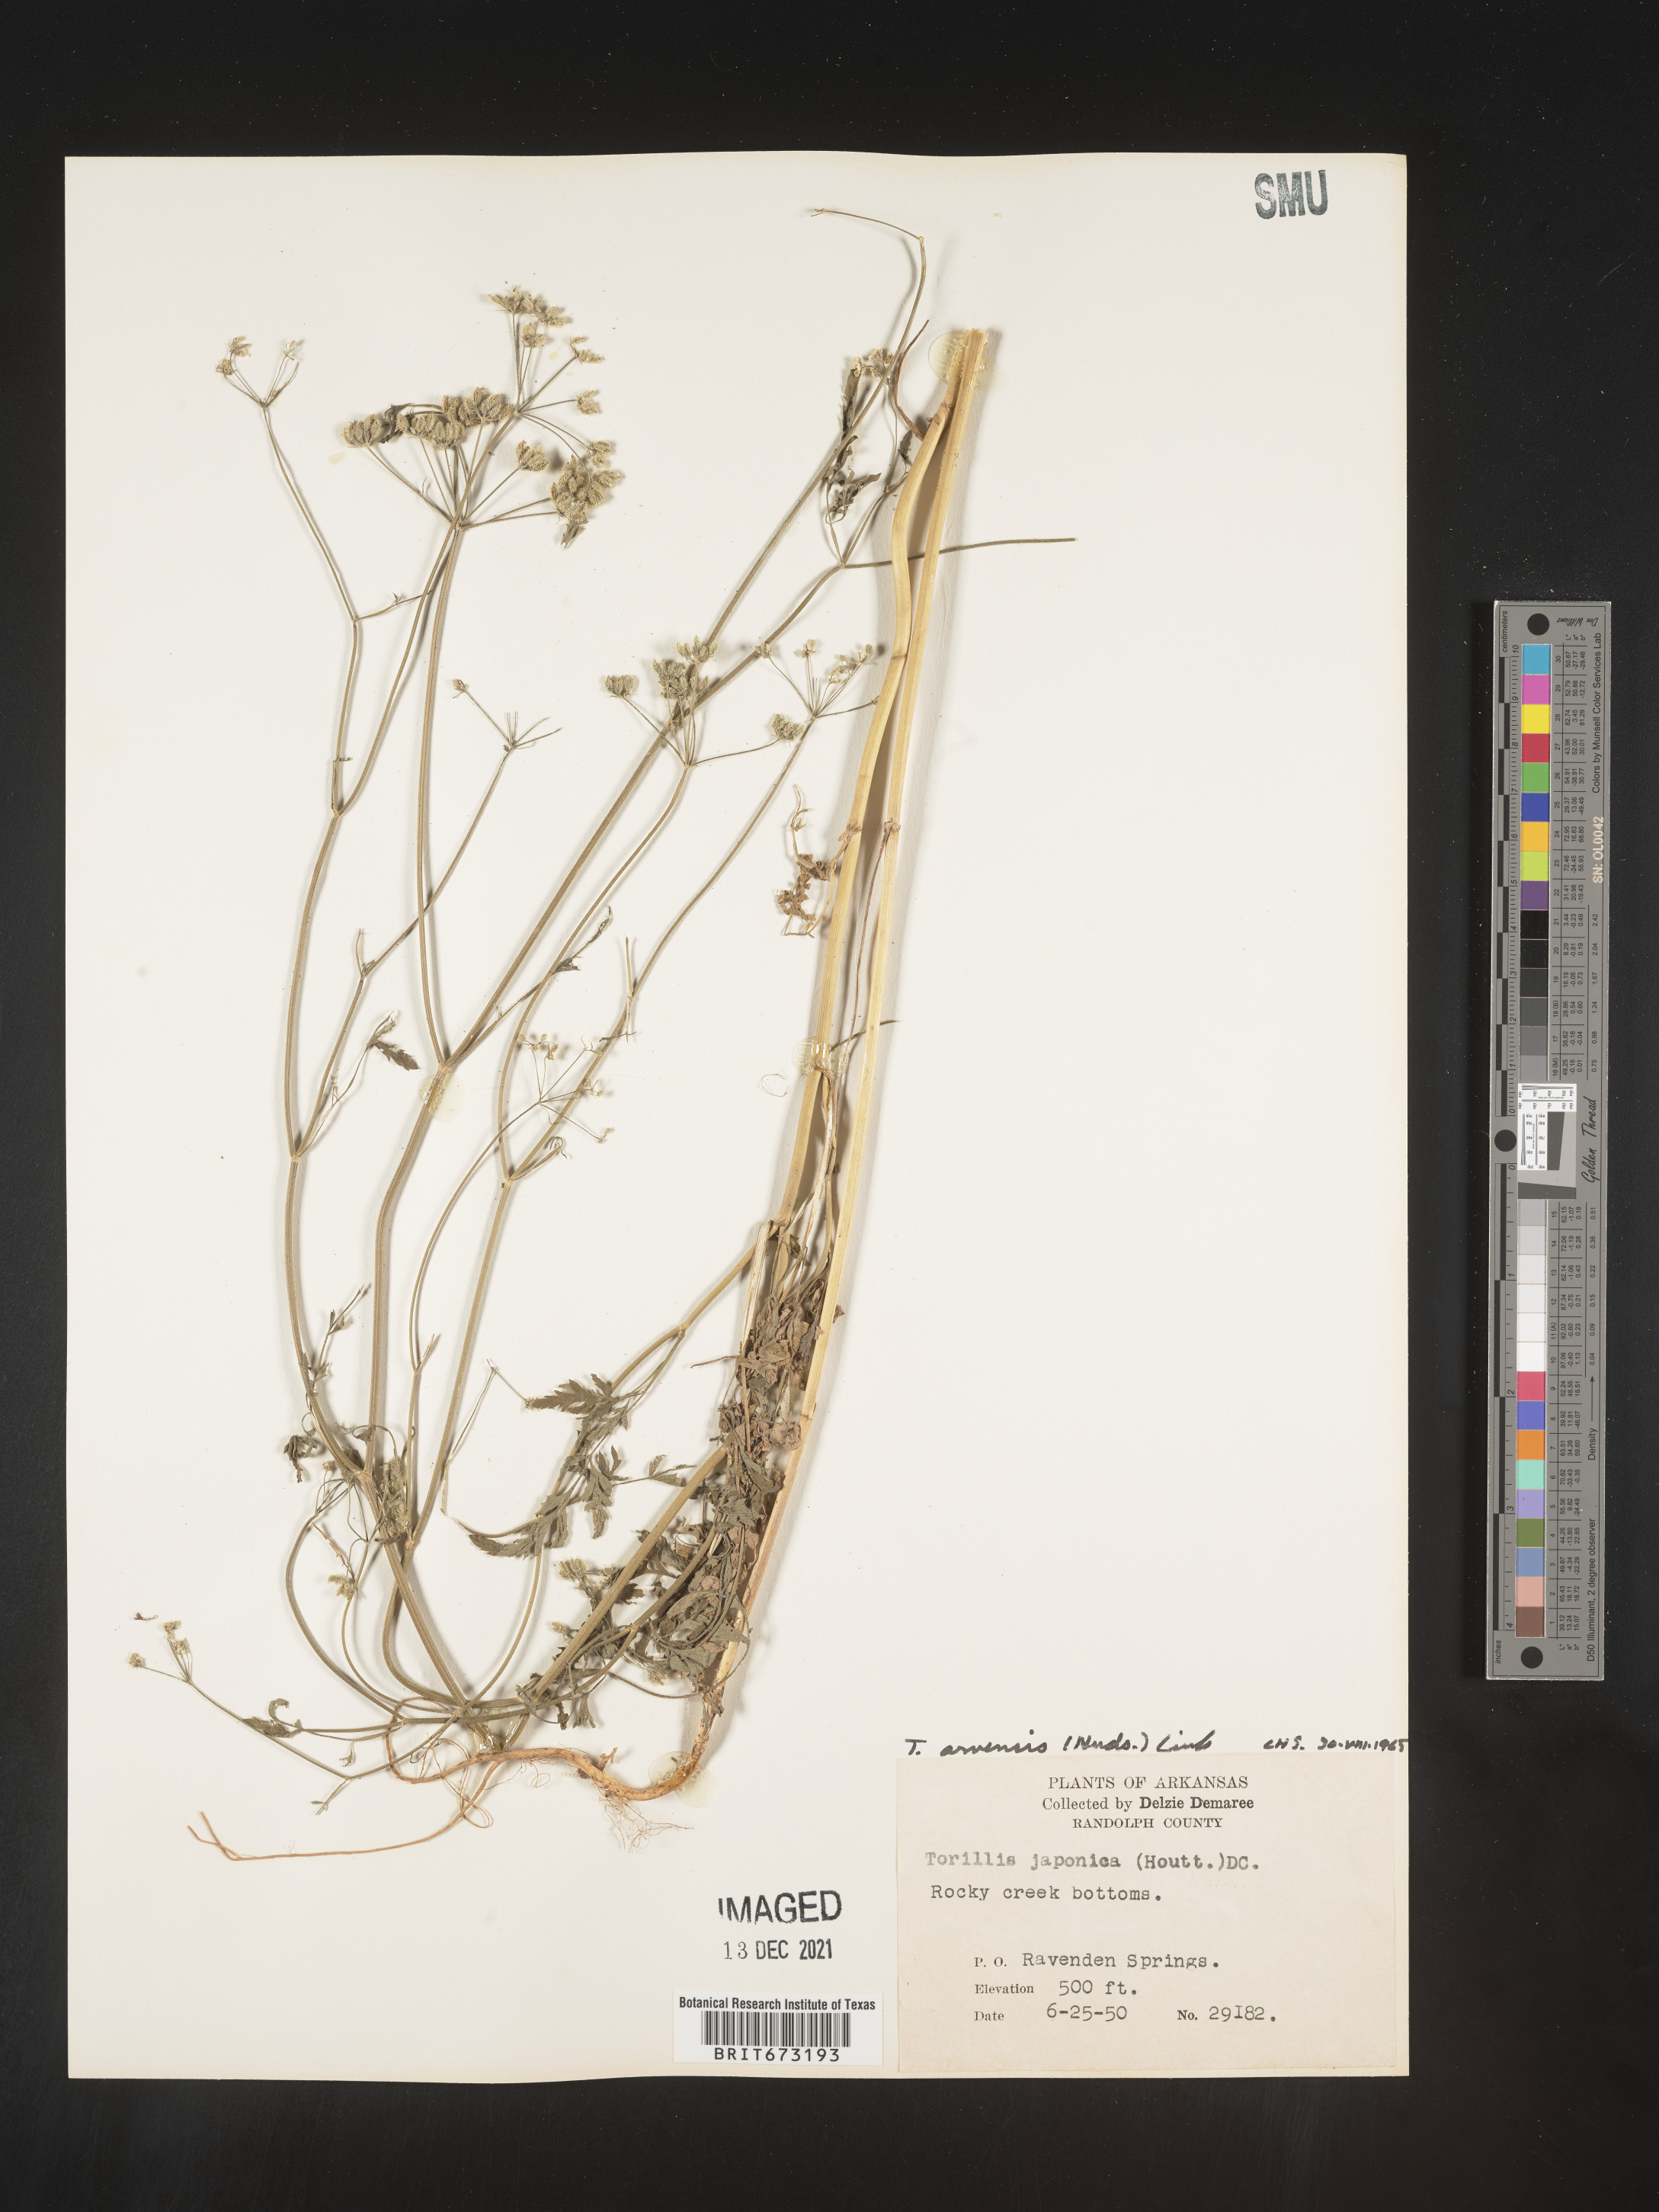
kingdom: Plantae
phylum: Tracheophyta
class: Magnoliopsida
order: Apiales
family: Apiaceae
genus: Torilis
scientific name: Torilis arvensis
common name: Spreading hedge-parsley
